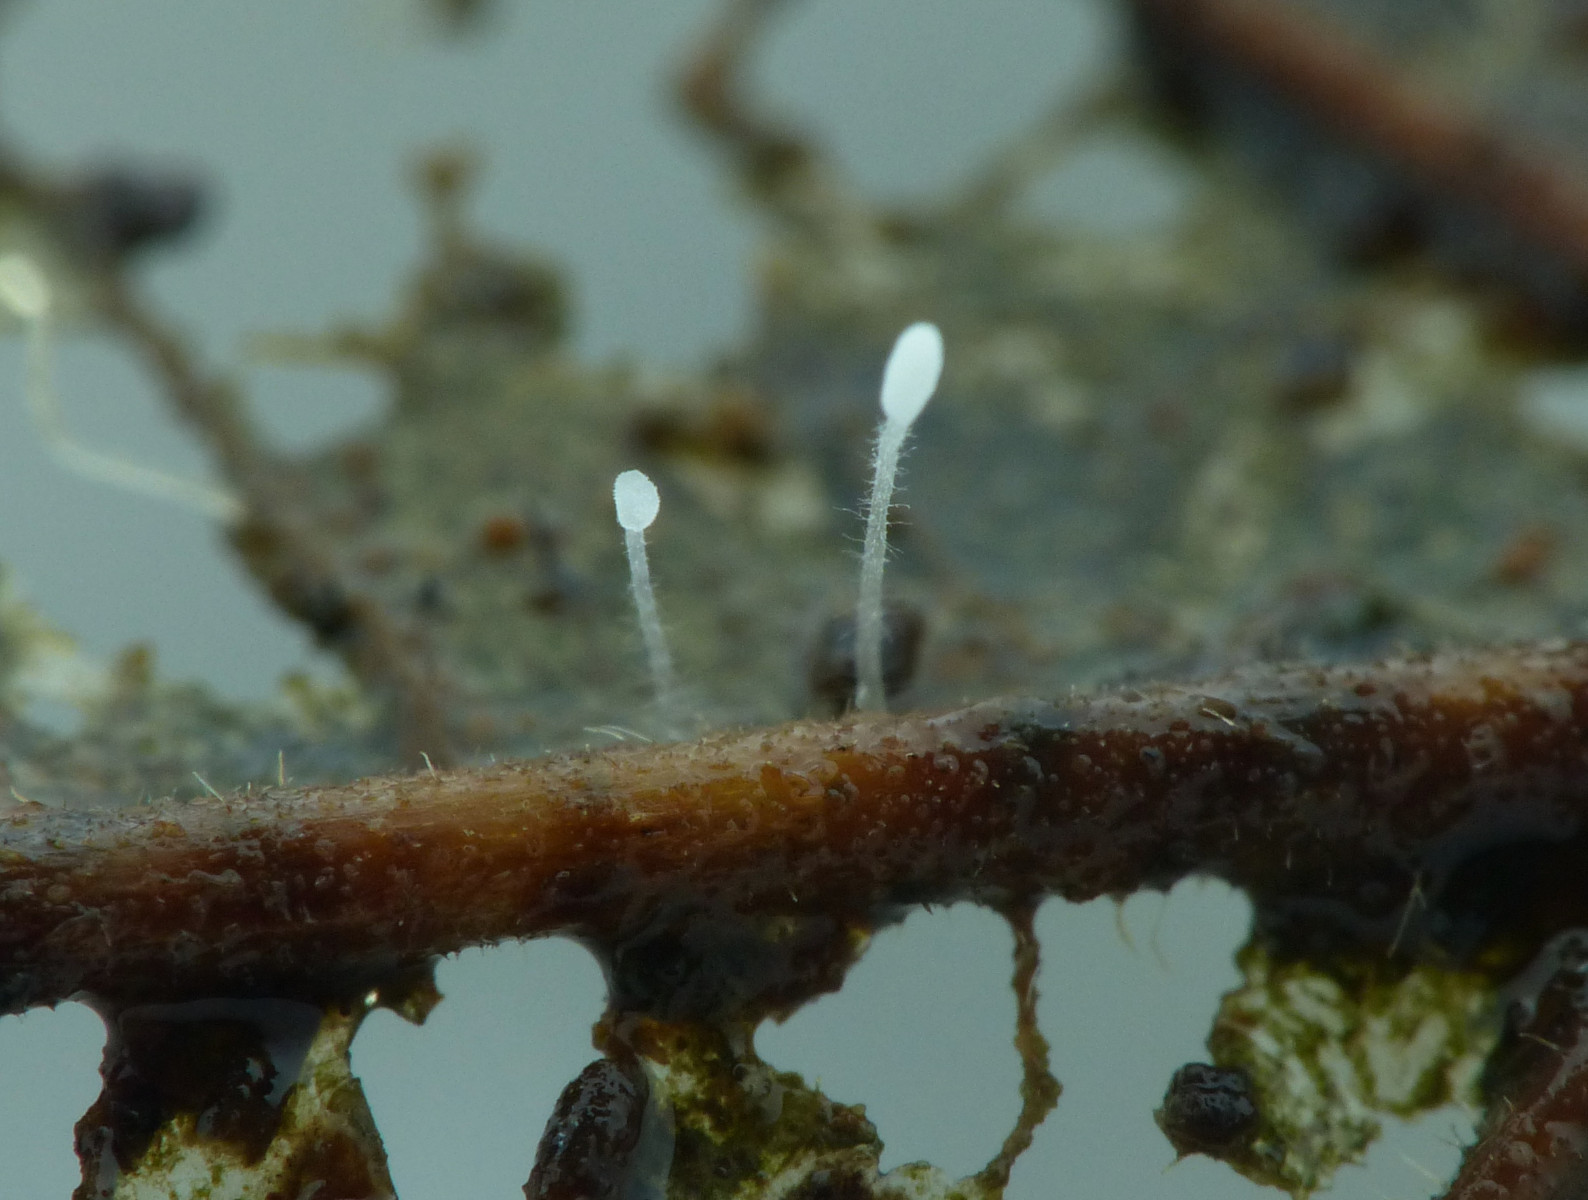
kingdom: Fungi
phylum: Basidiomycota
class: Agaricomycetes
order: Agaricales
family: Typhulaceae
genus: Typhula
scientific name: Typhula setipes
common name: liden trådkølle
